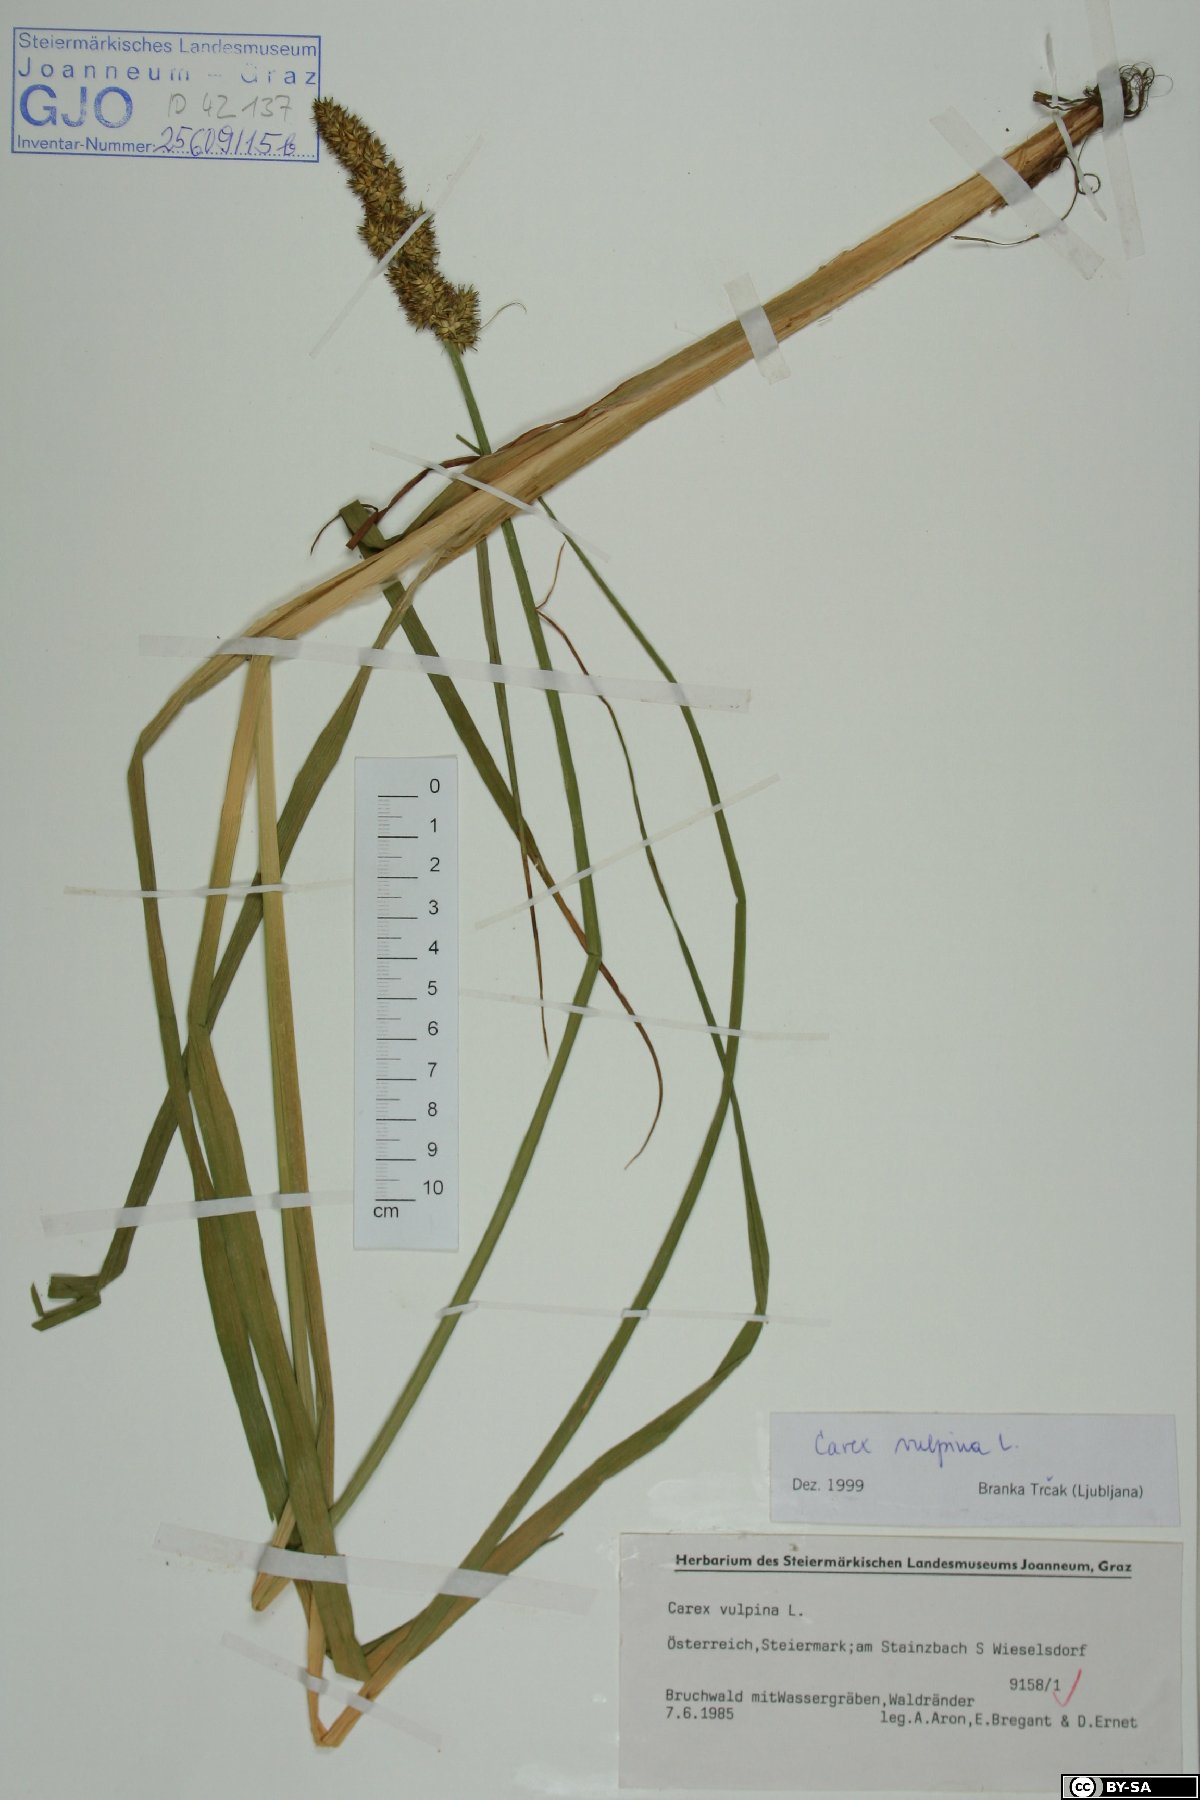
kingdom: Plantae
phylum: Tracheophyta
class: Liliopsida
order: Poales
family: Cyperaceae
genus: Carex
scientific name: Carex vulpina
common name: True fox-sedge
